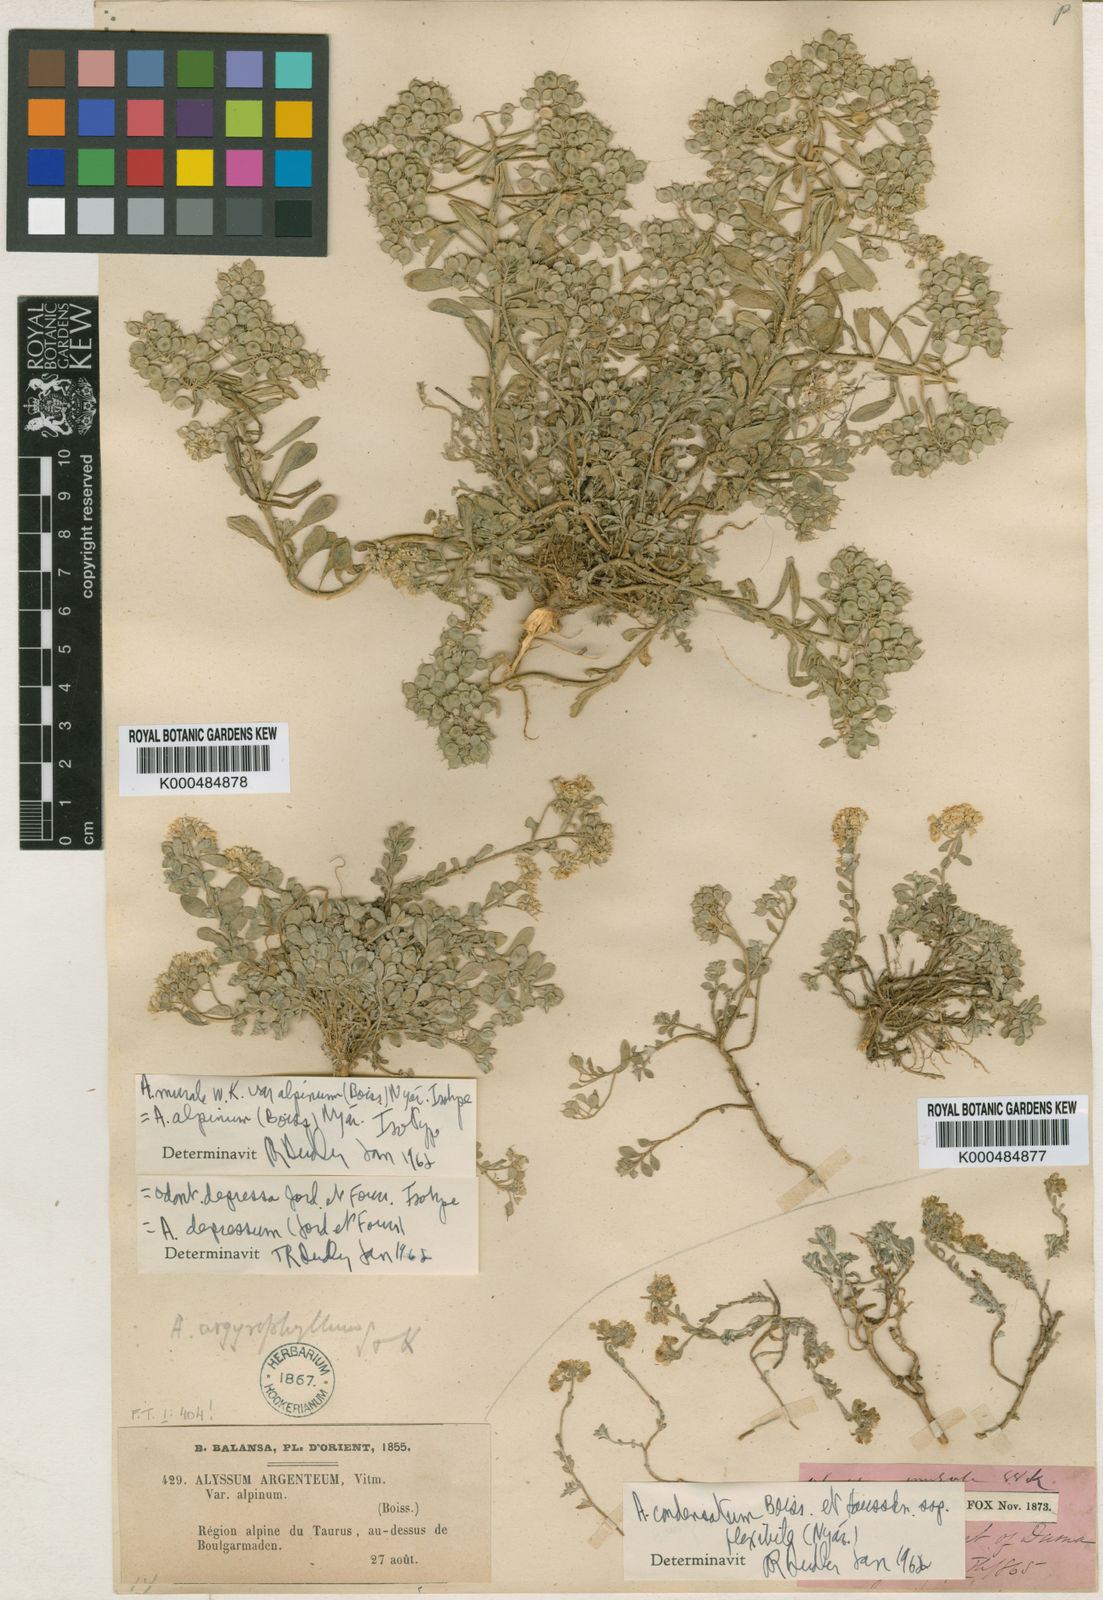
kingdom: Plantae
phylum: Tracheophyta
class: Magnoliopsida
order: Brassicales
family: Brassicaceae
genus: Odontarrhena
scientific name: Odontarrhena muralis
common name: Rock alyssum
